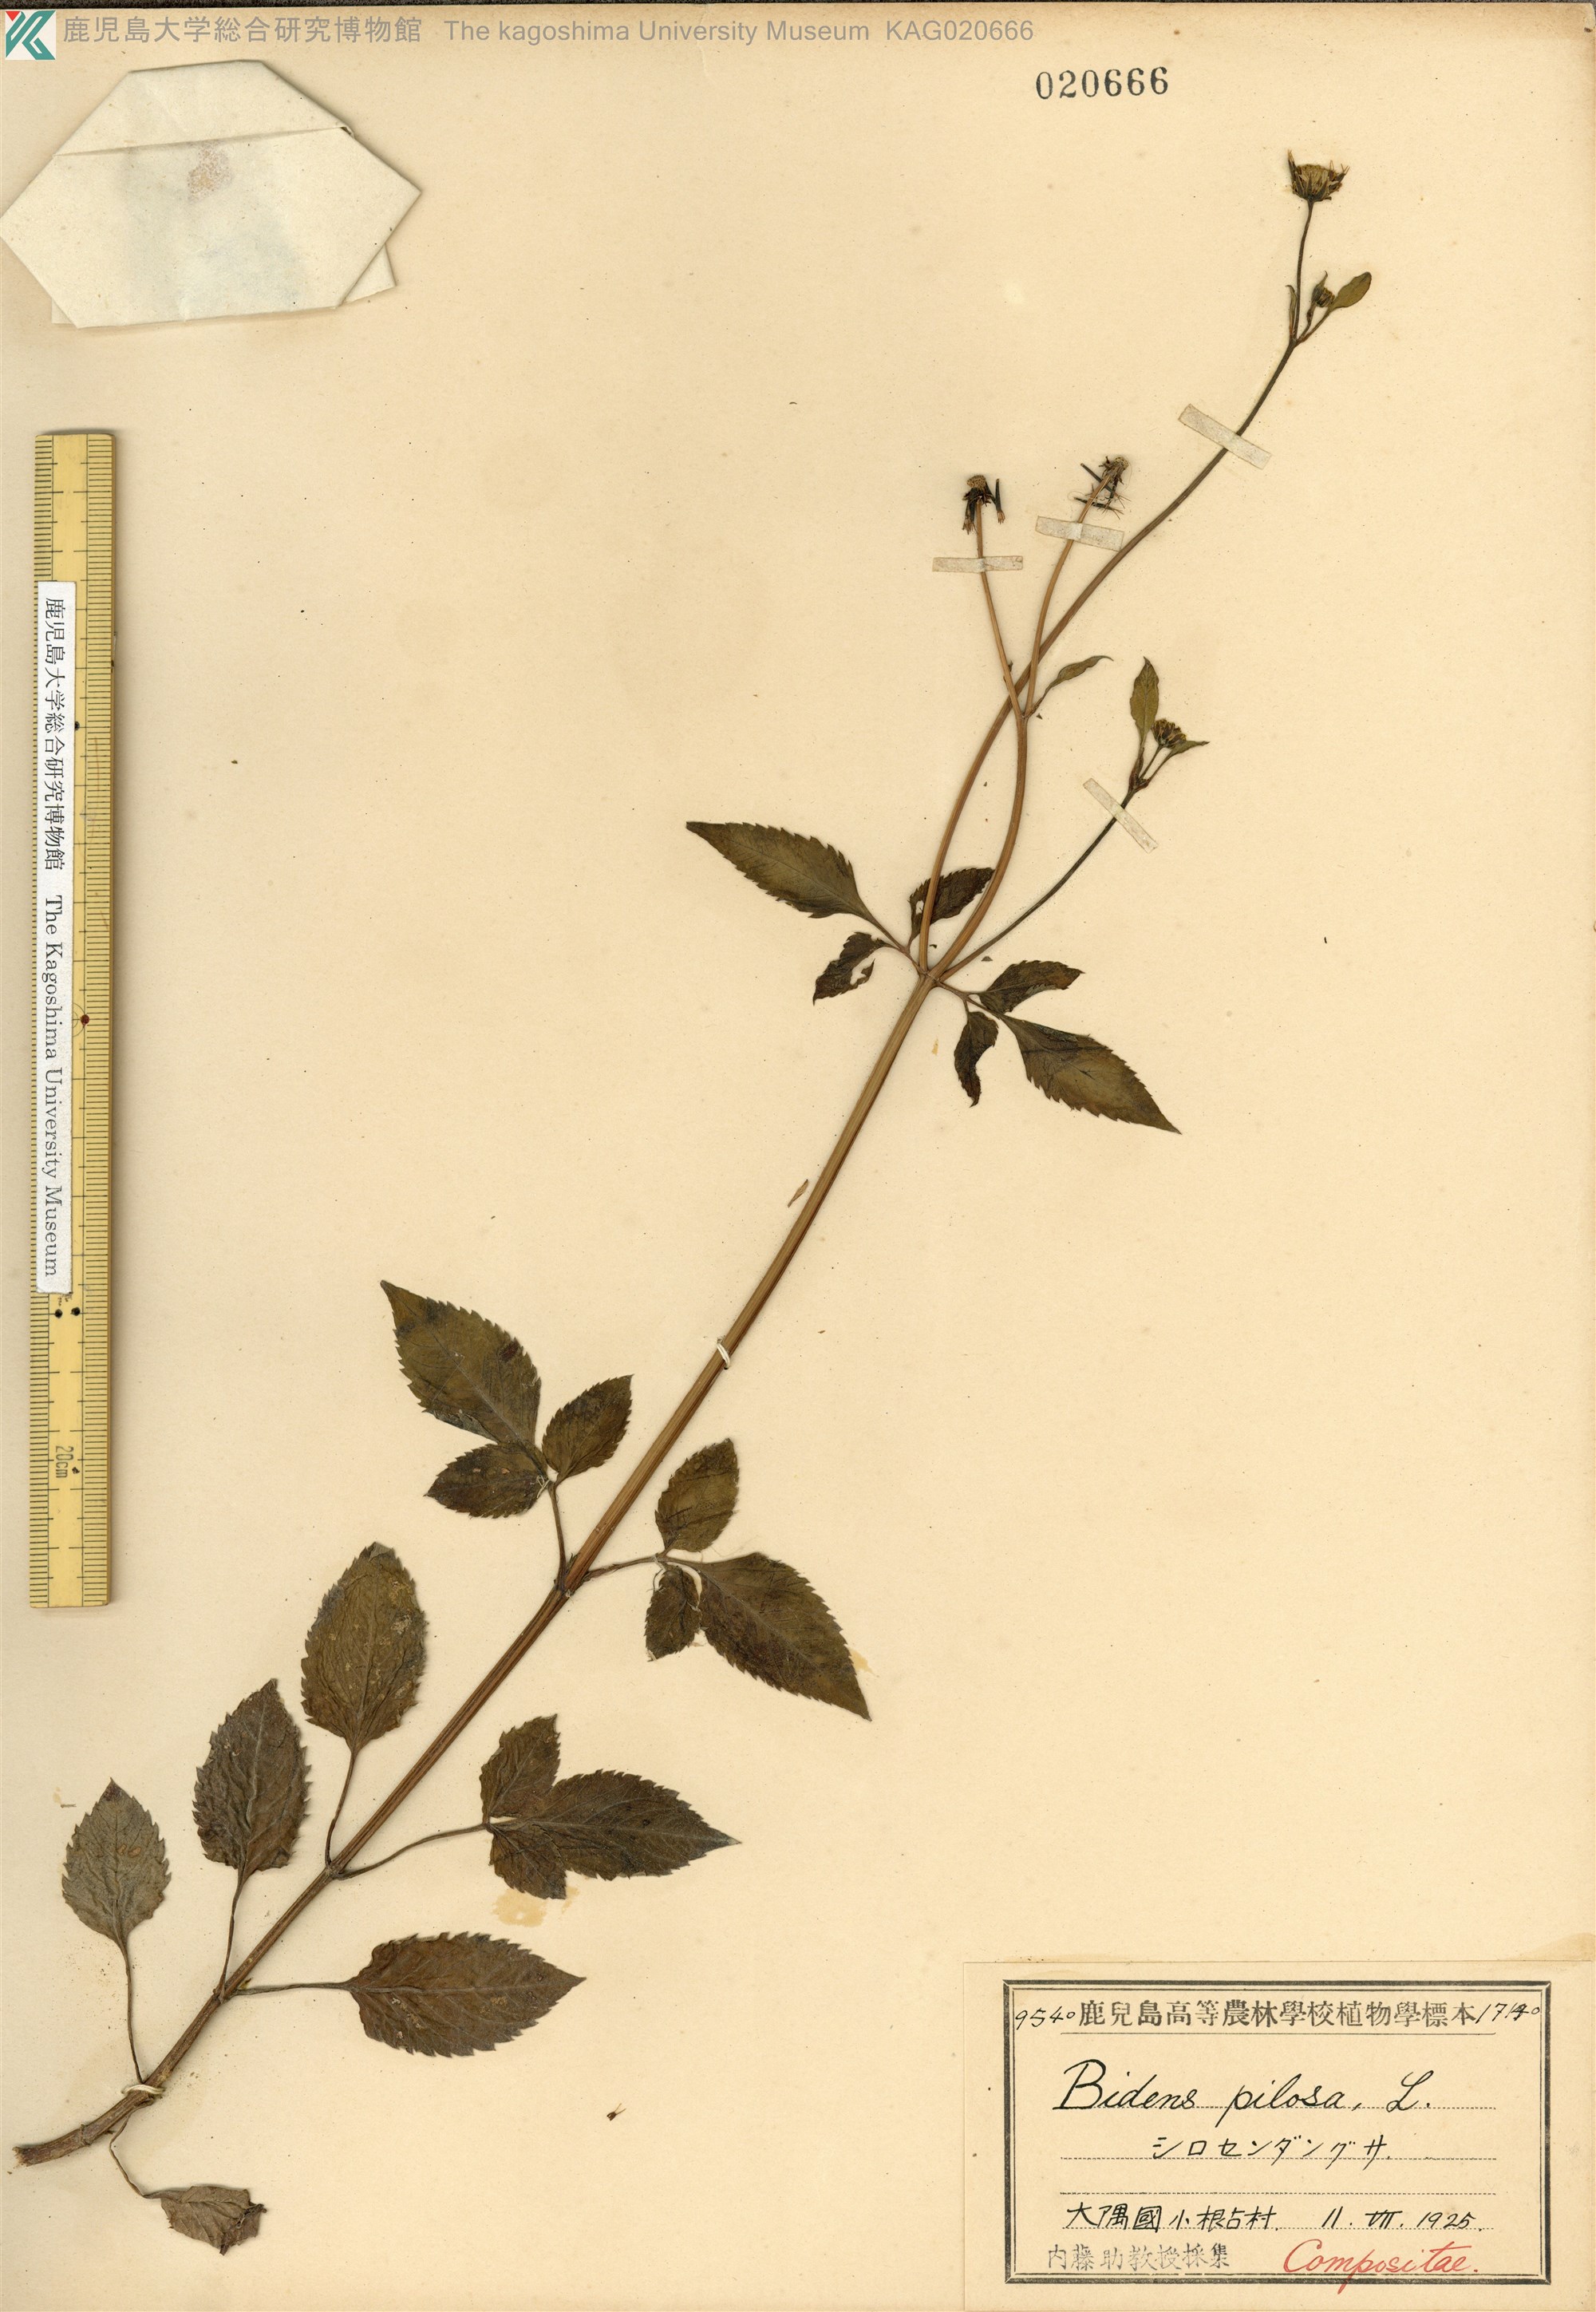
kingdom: Plantae
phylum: Tracheophyta
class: Magnoliopsida
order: Asterales
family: Asteraceae
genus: Bidens
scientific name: Bidens pilosa
